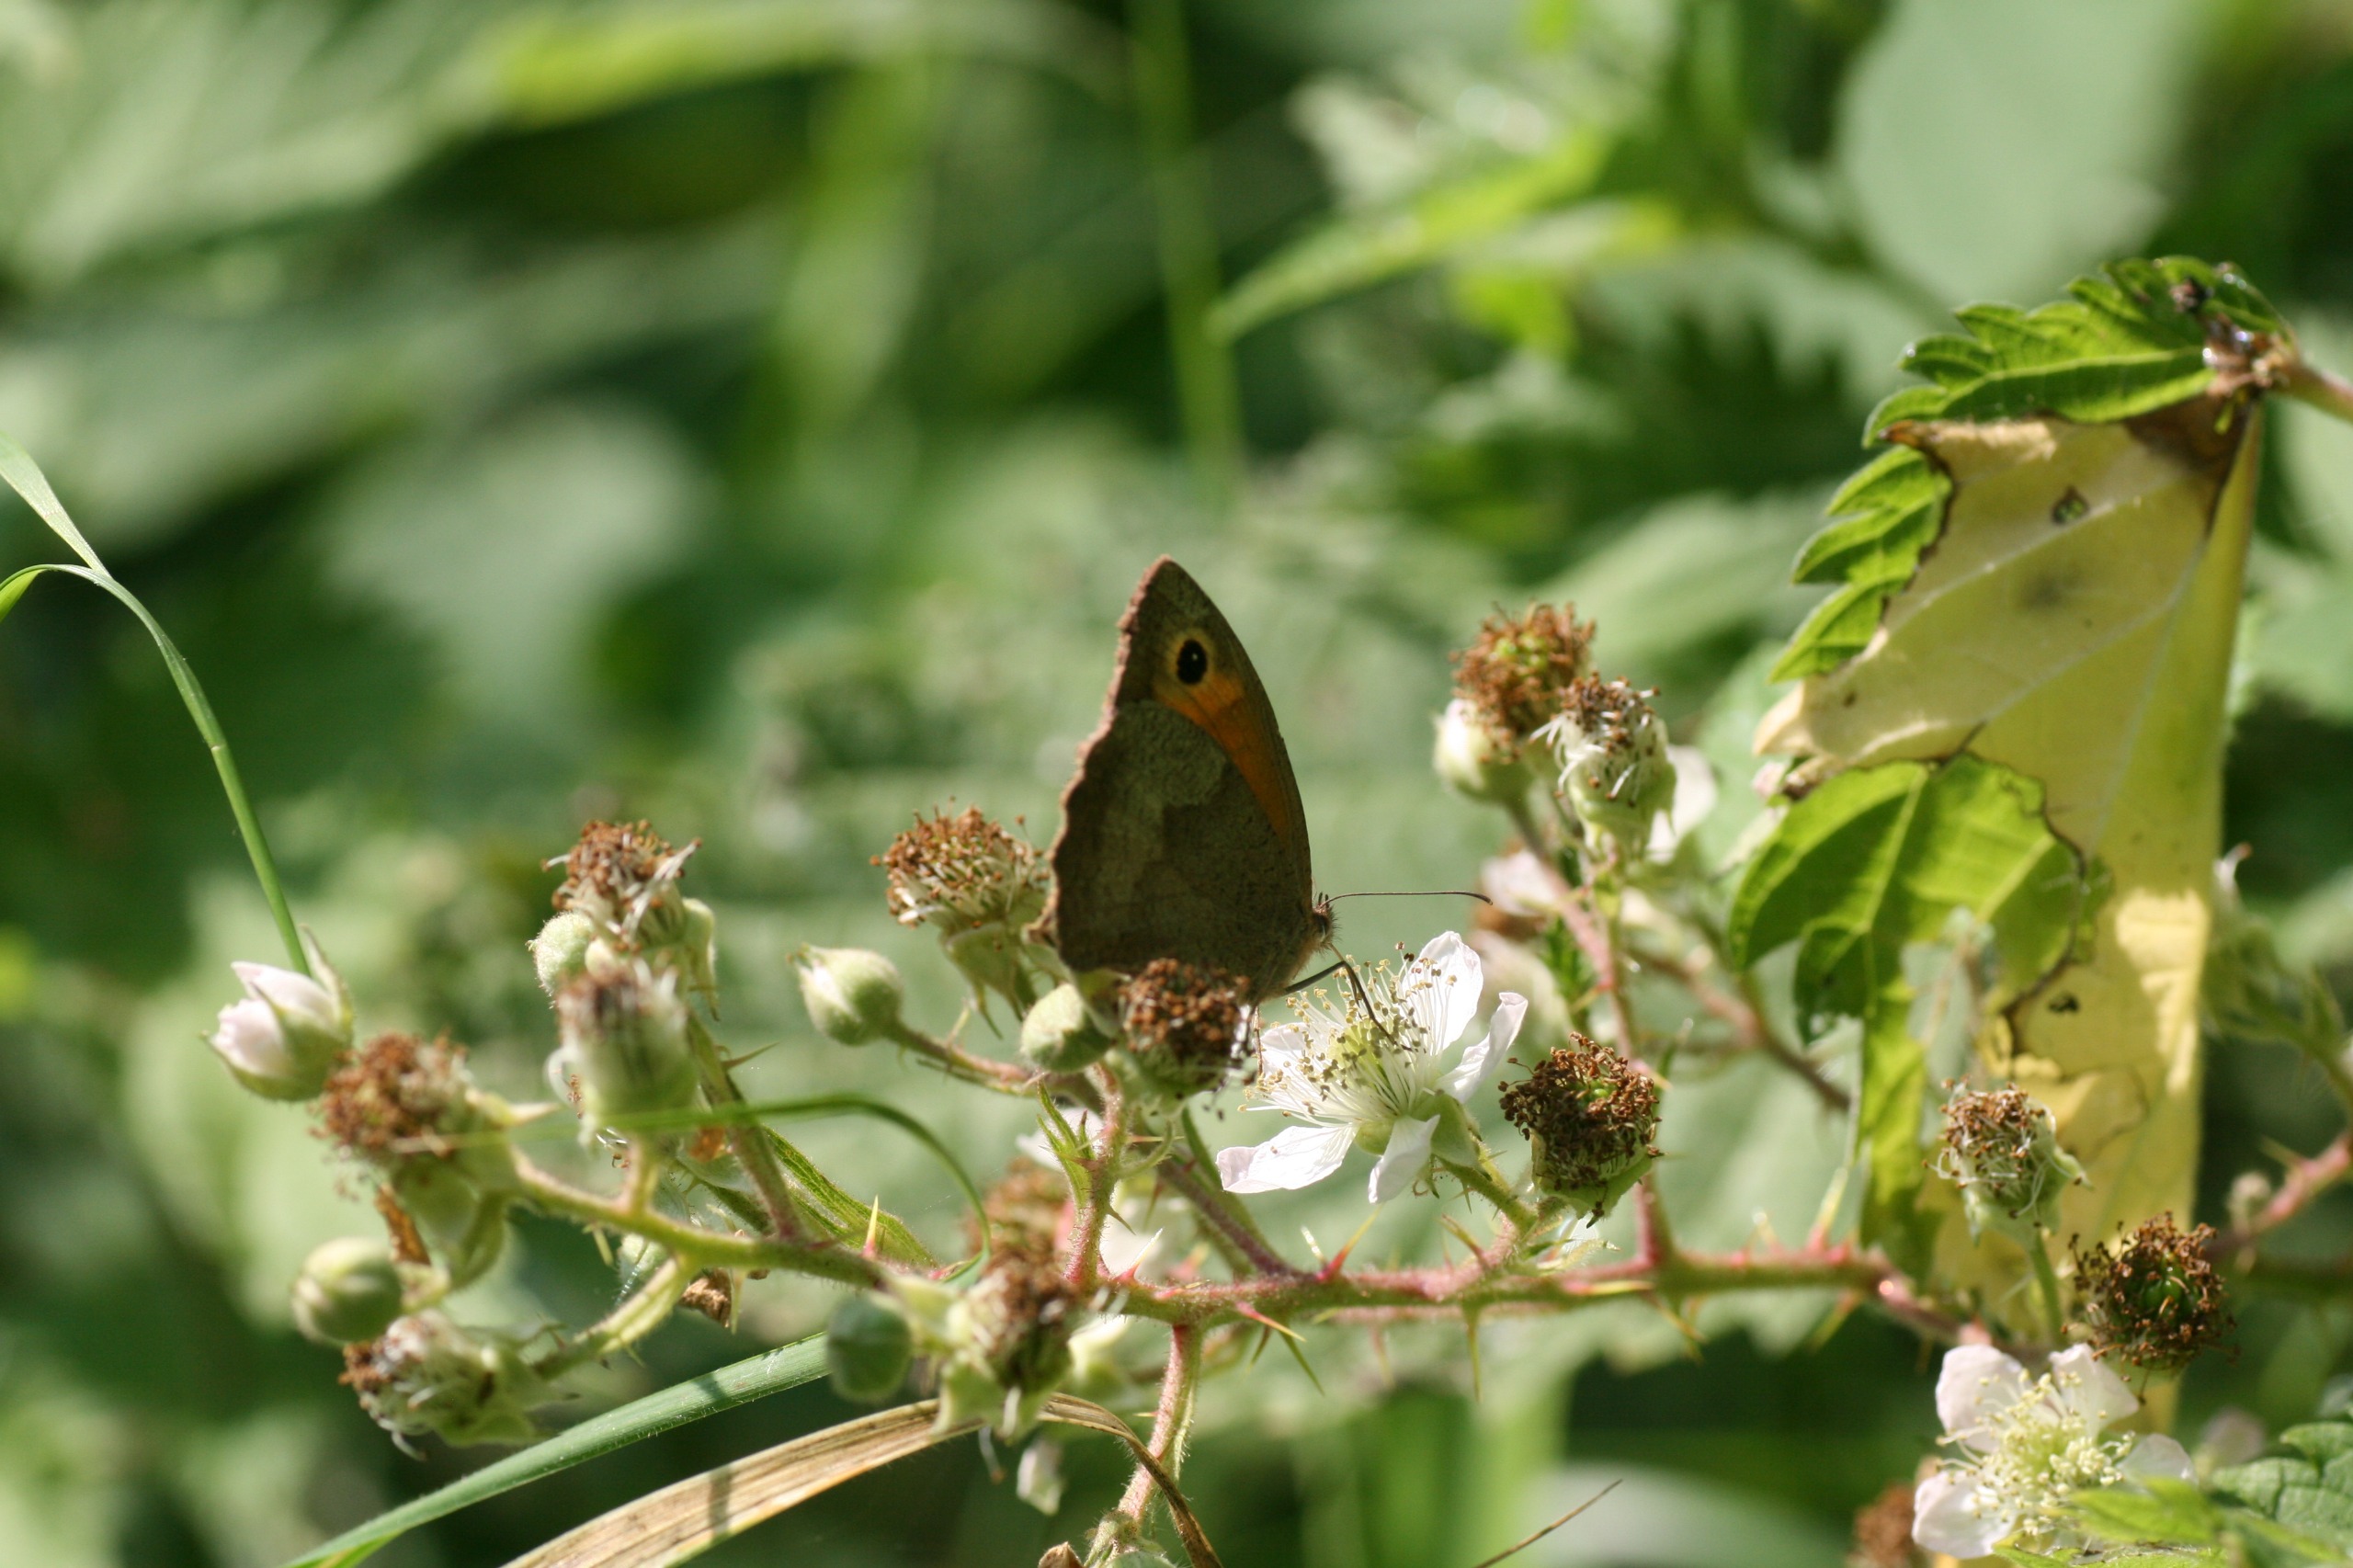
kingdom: Animalia
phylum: Arthropoda
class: Insecta
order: Lepidoptera
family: Nymphalidae
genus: Maniola
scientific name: Maniola jurtina
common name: Græsrandøje
